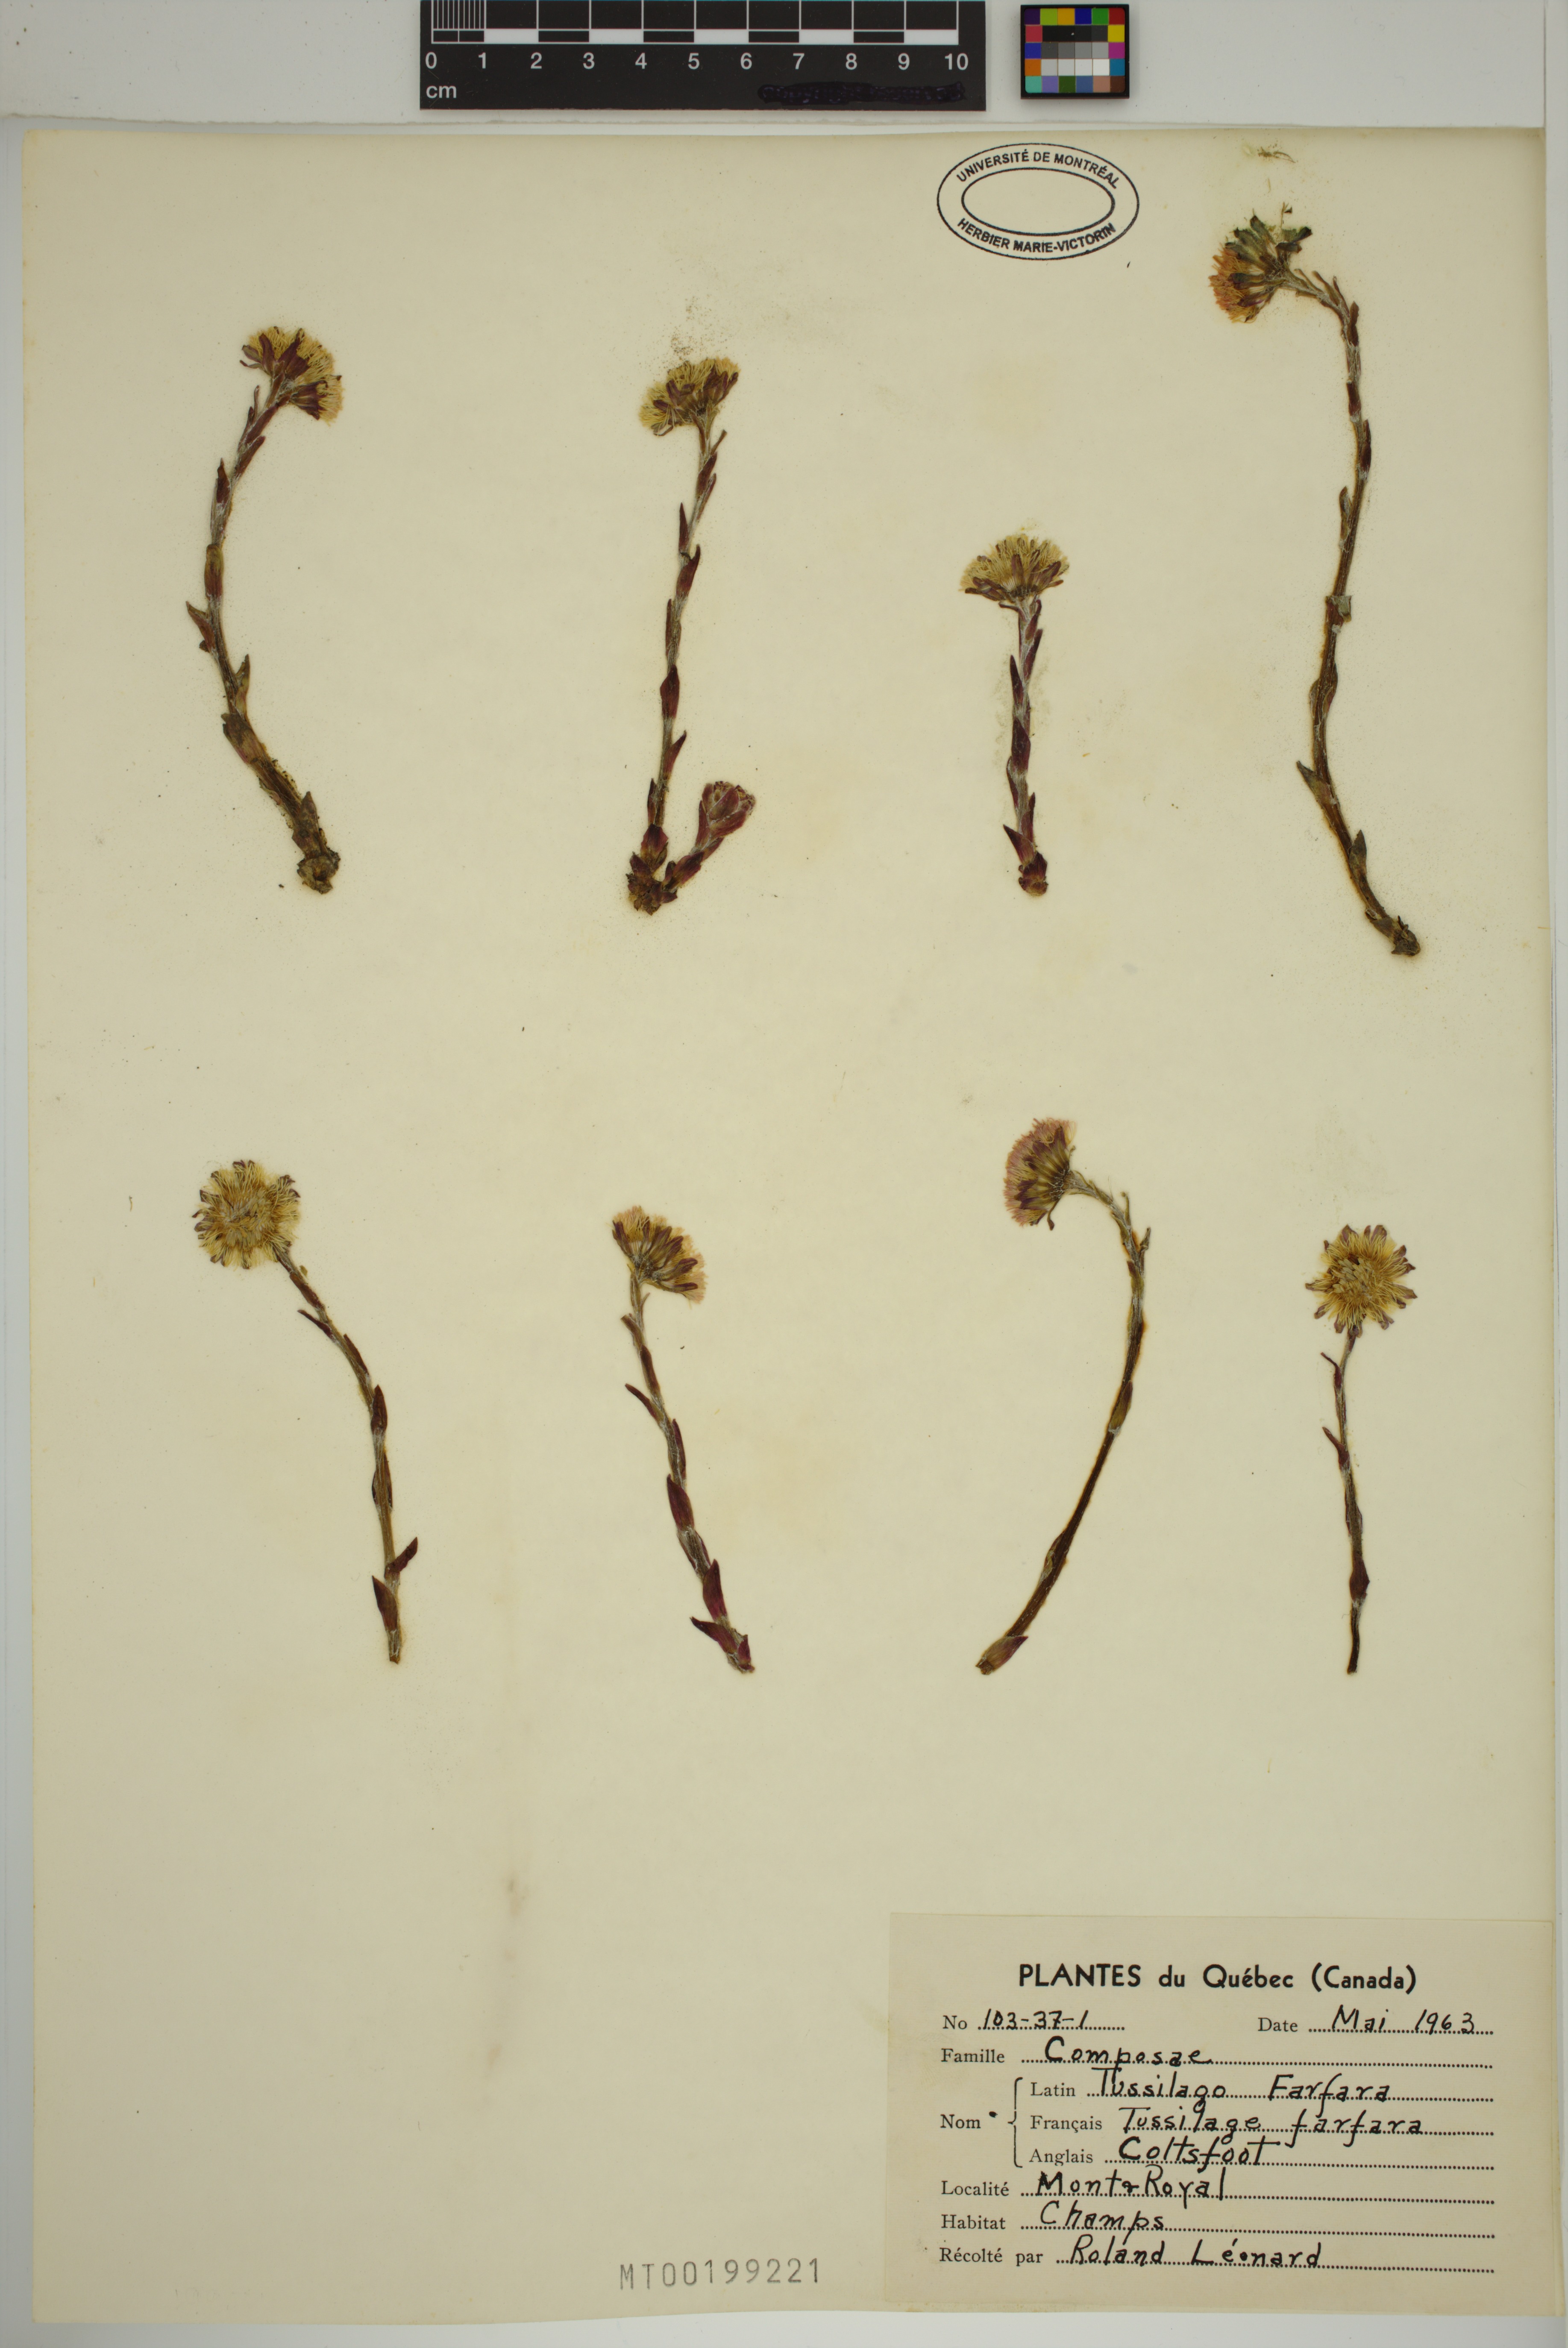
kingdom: Plantae
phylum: Tracheophyta
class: Magnoliopsida
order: Asterales
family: Asteraceae
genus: Tussilago
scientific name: Tussilago farfara
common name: Coltsfoot
